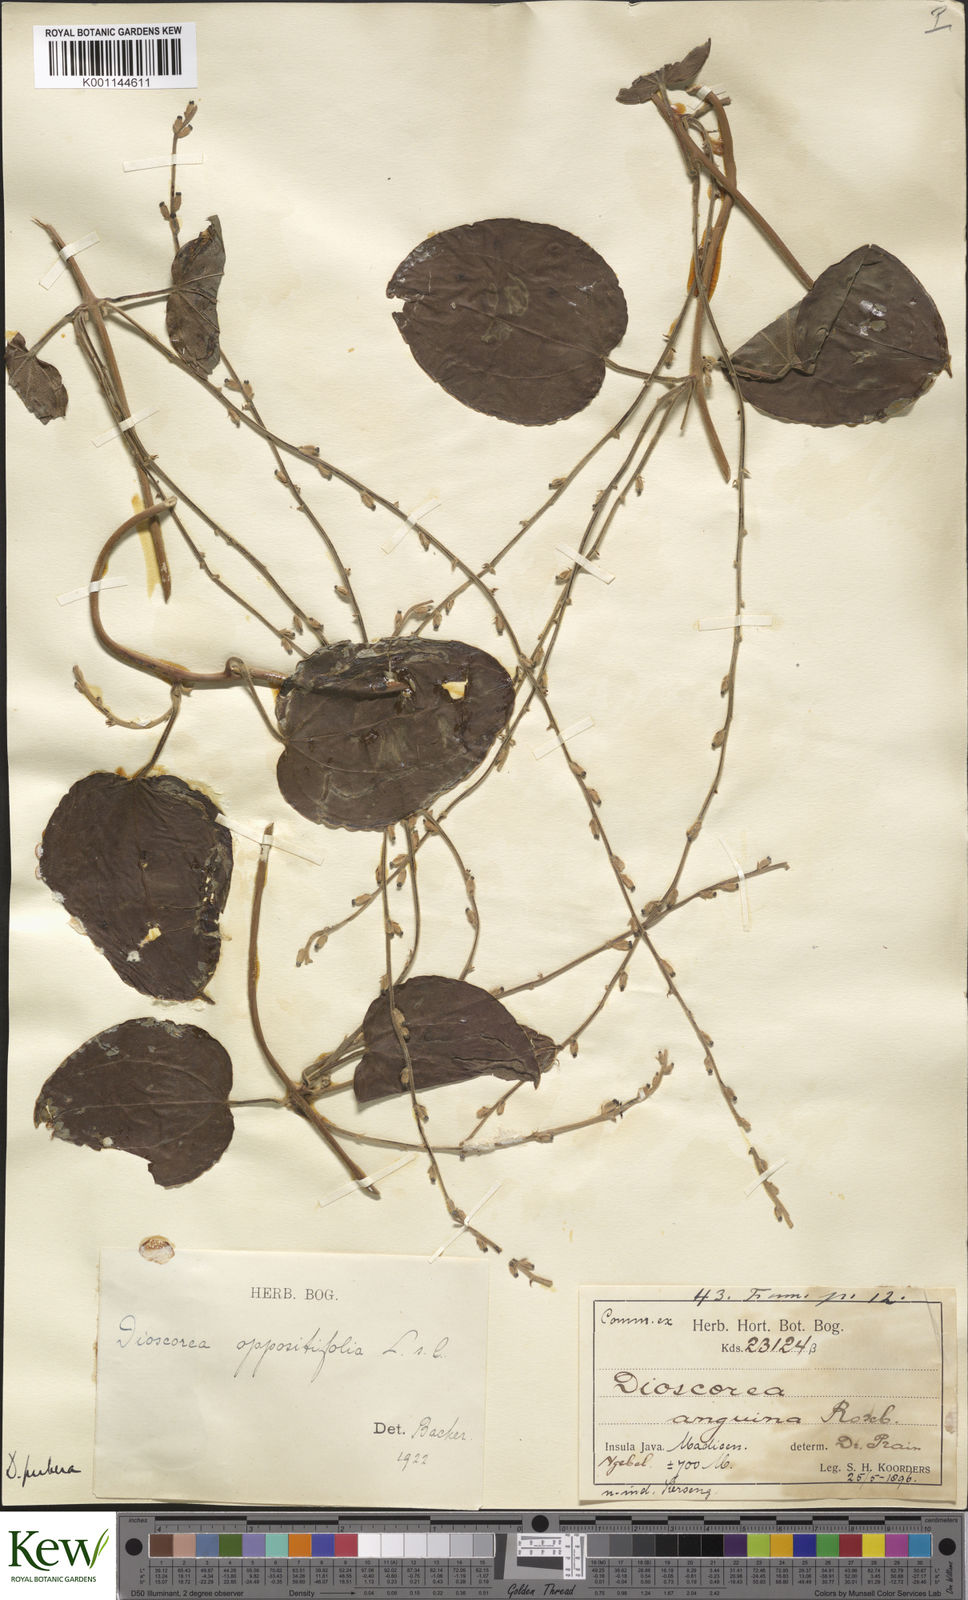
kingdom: Plantae
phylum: Tracheophyta
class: Liliopsida
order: Dioscoreales
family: Dioscoreaceae
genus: Dioscorea
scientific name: Dioscorea pubera
